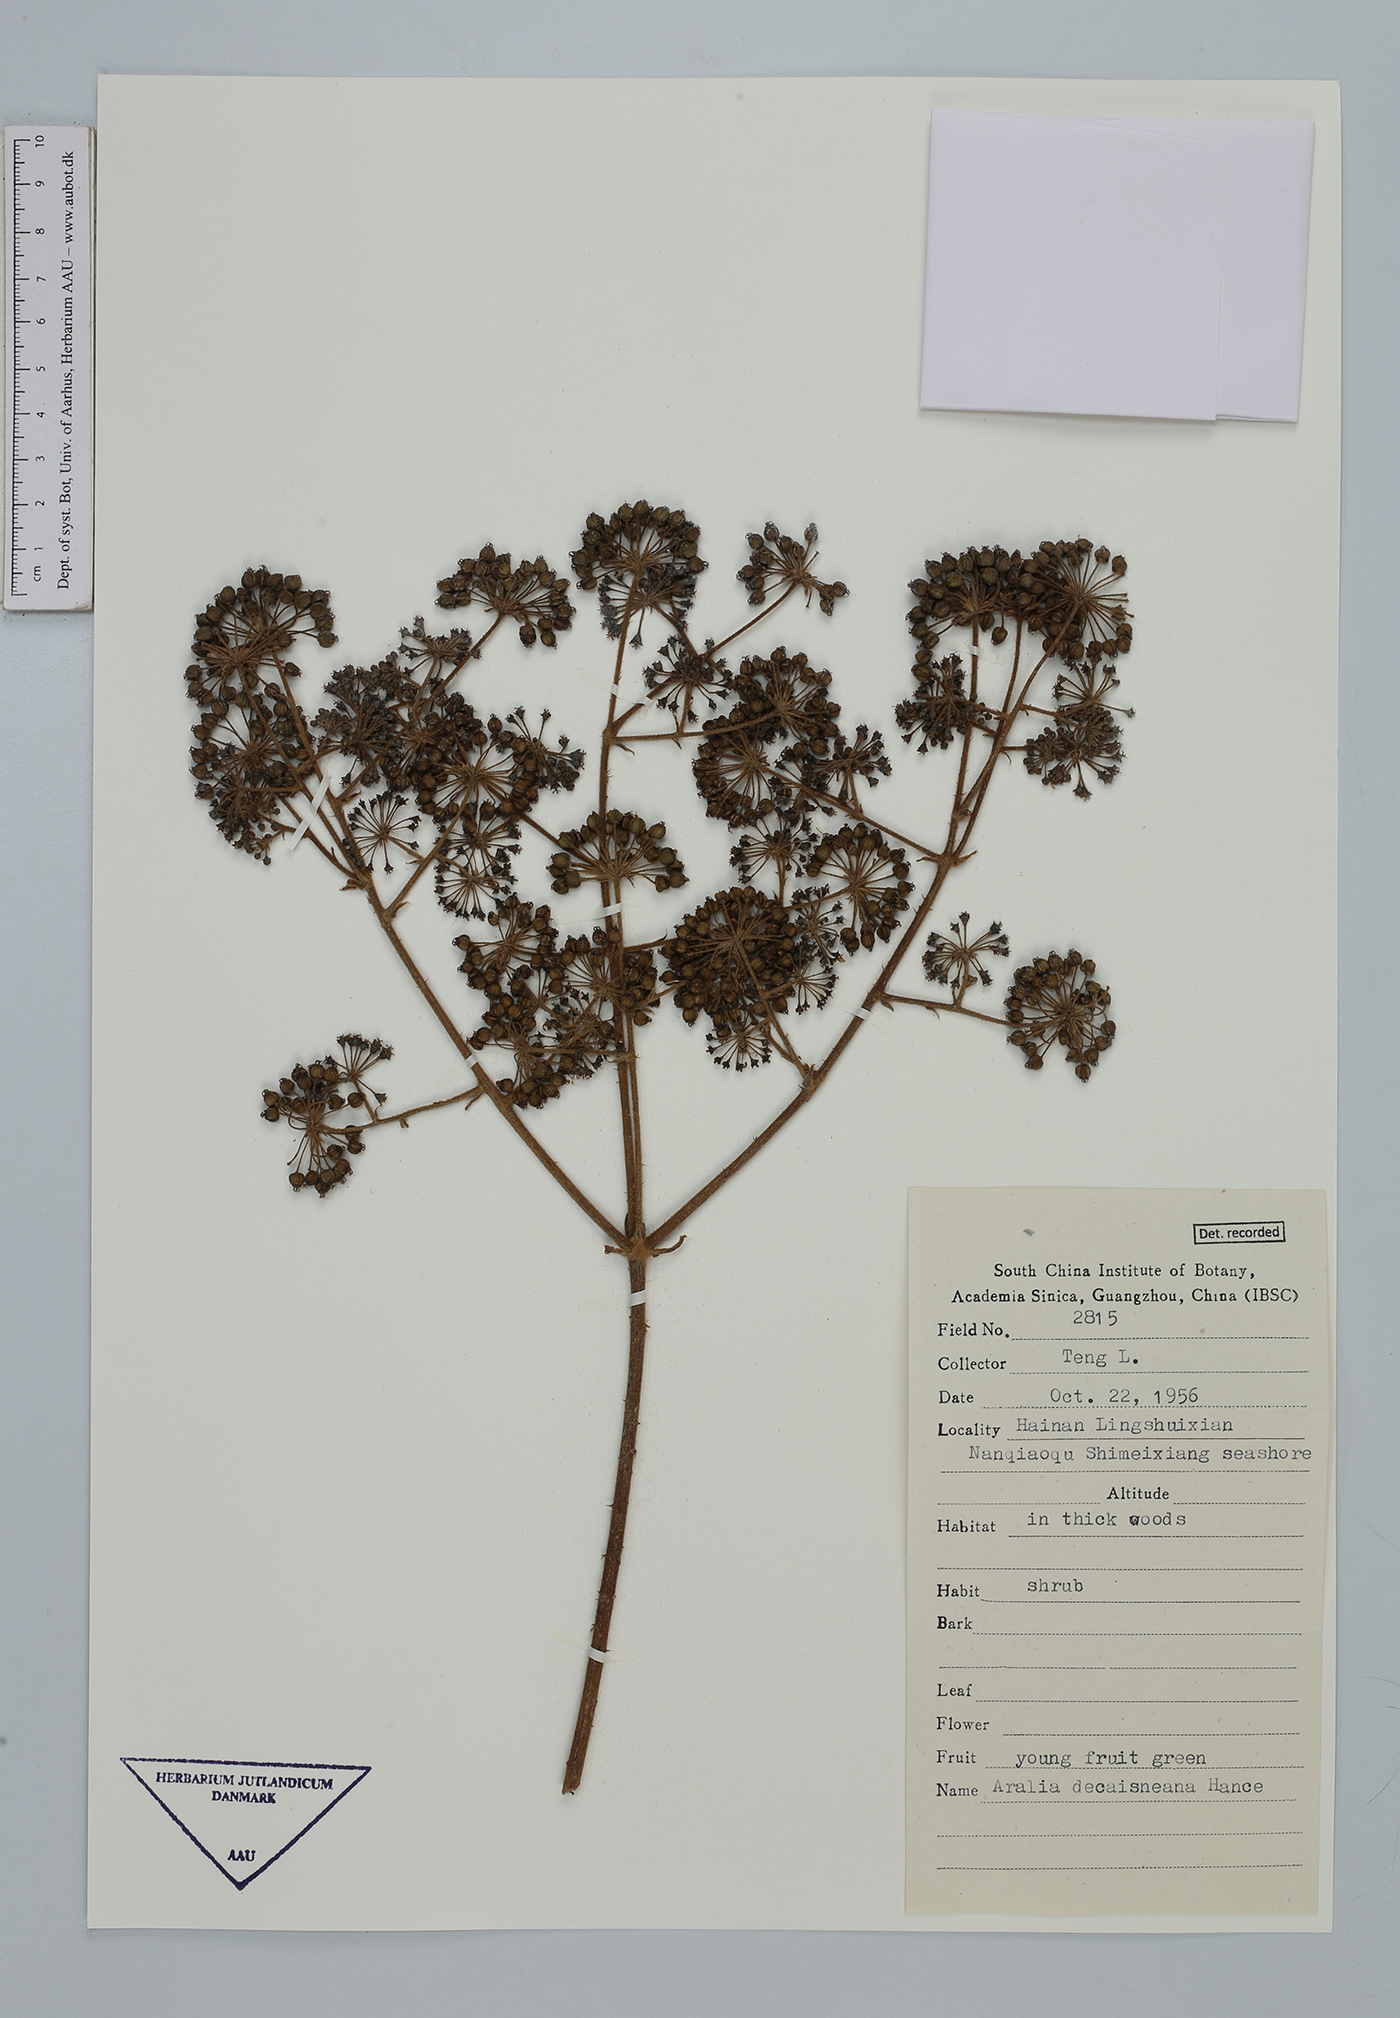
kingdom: Plantae
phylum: Tracheophyta
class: Magnoliopsida
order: Apiales
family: Araliaceae
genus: Aralia
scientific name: Aralia decaisneana
